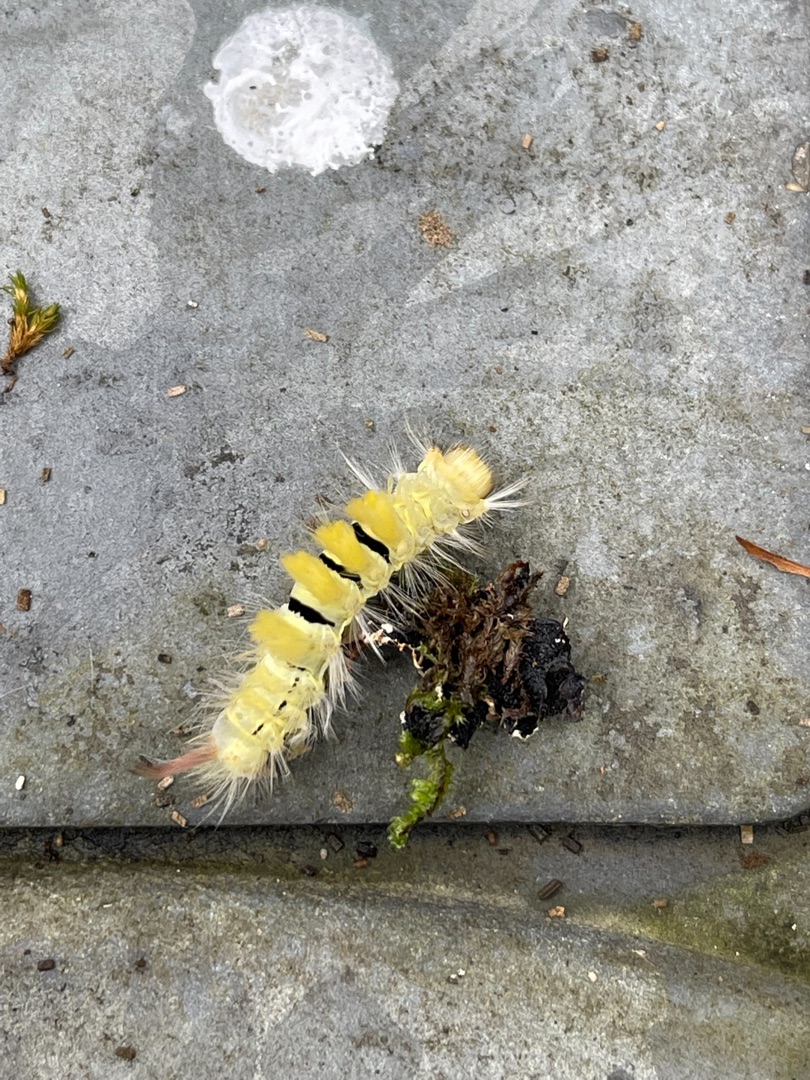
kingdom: Animalia
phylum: Arthropoda
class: Insecta
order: Lepidoptera
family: Erebidae
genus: Calliteara
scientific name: Calliteara pudibunda
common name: Bøgenonne
